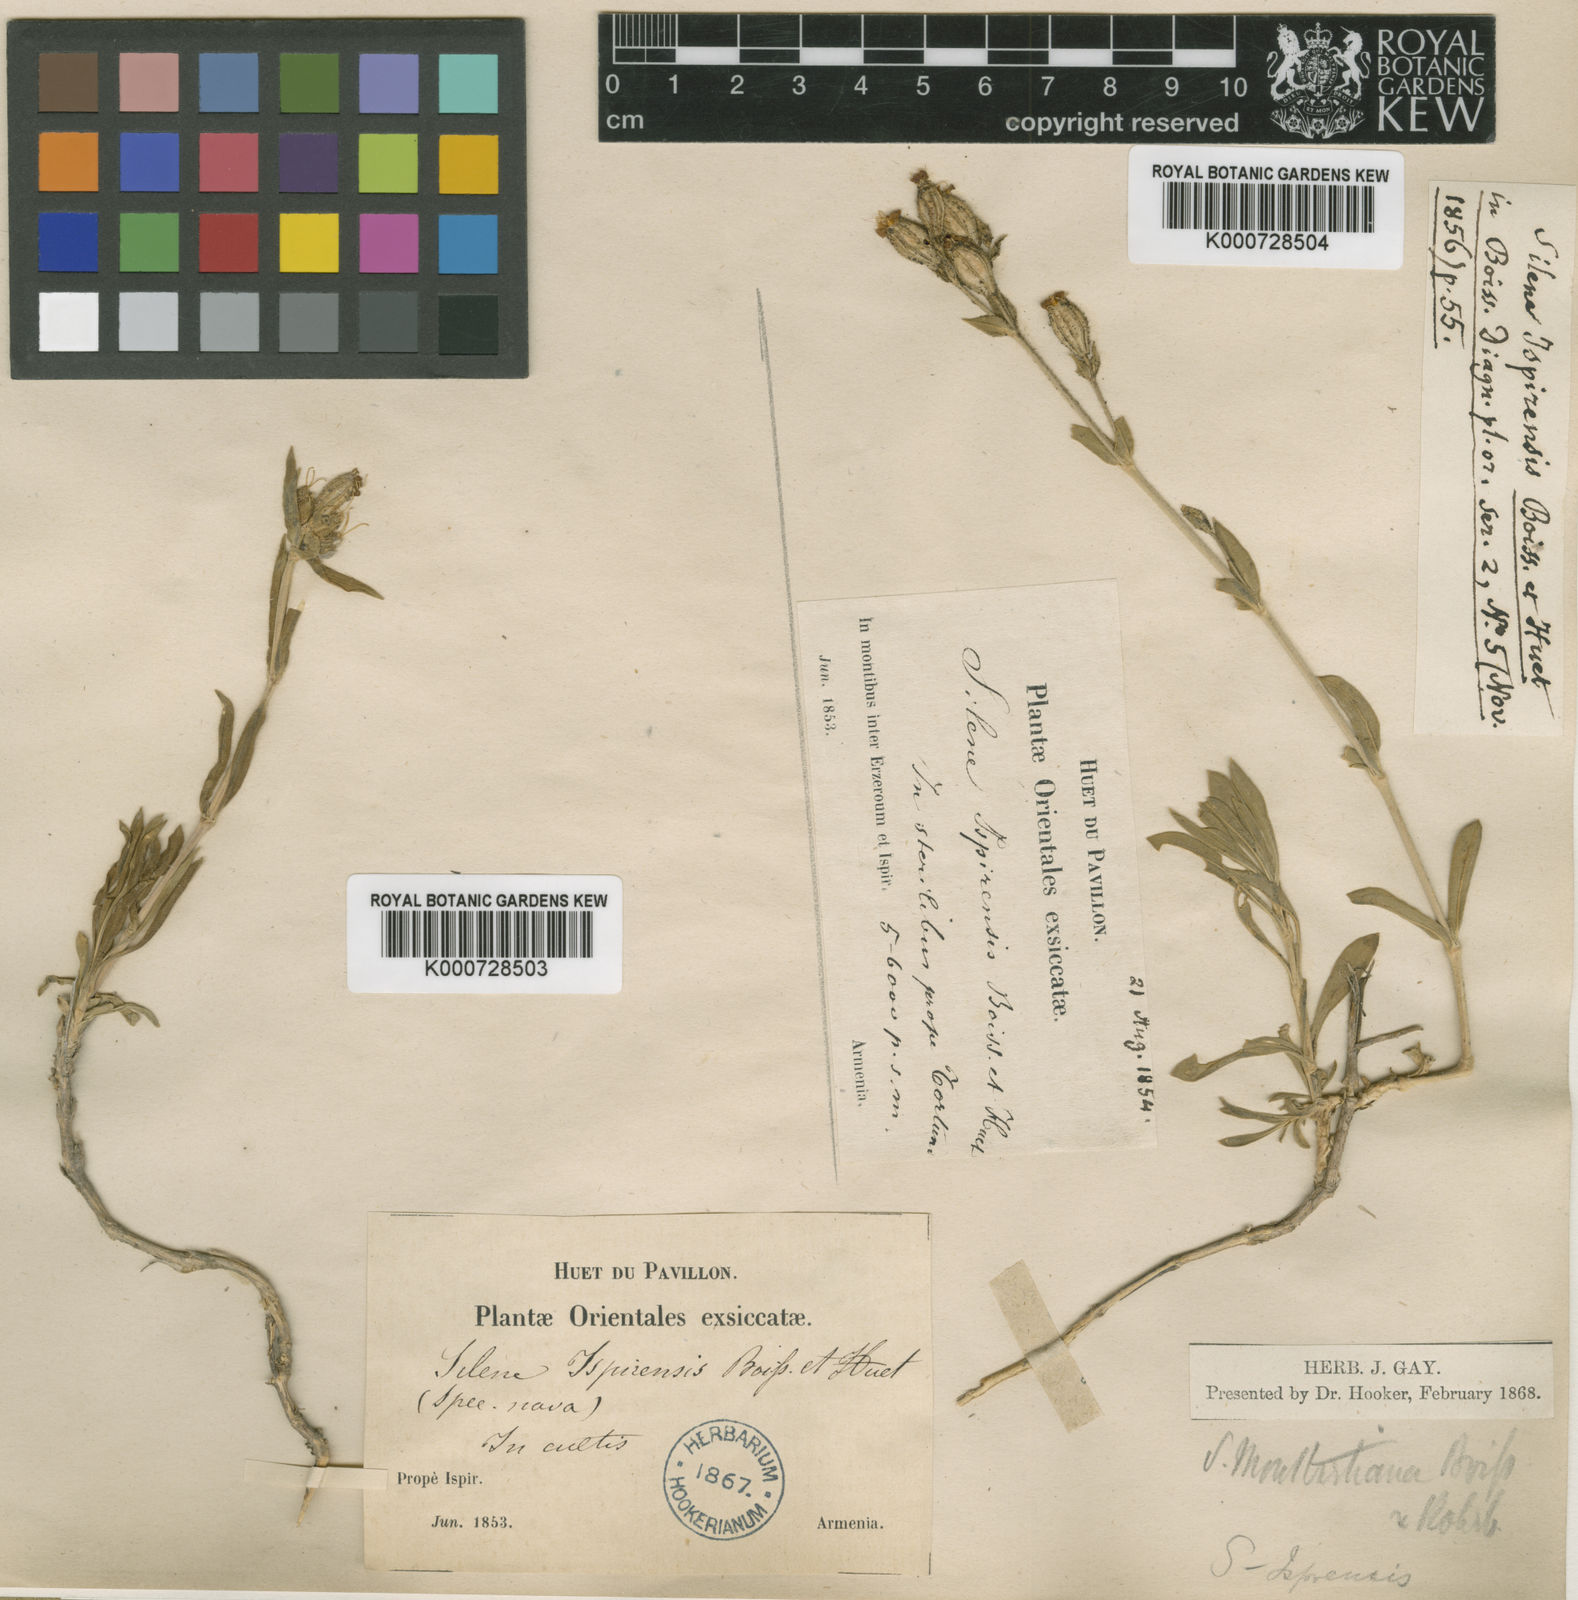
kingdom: Plantae
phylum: Tracheophyta
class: Magnoliopsida
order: Caryophyllales
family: Caryophyllaceae
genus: Silene
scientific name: Silene montbretiana
